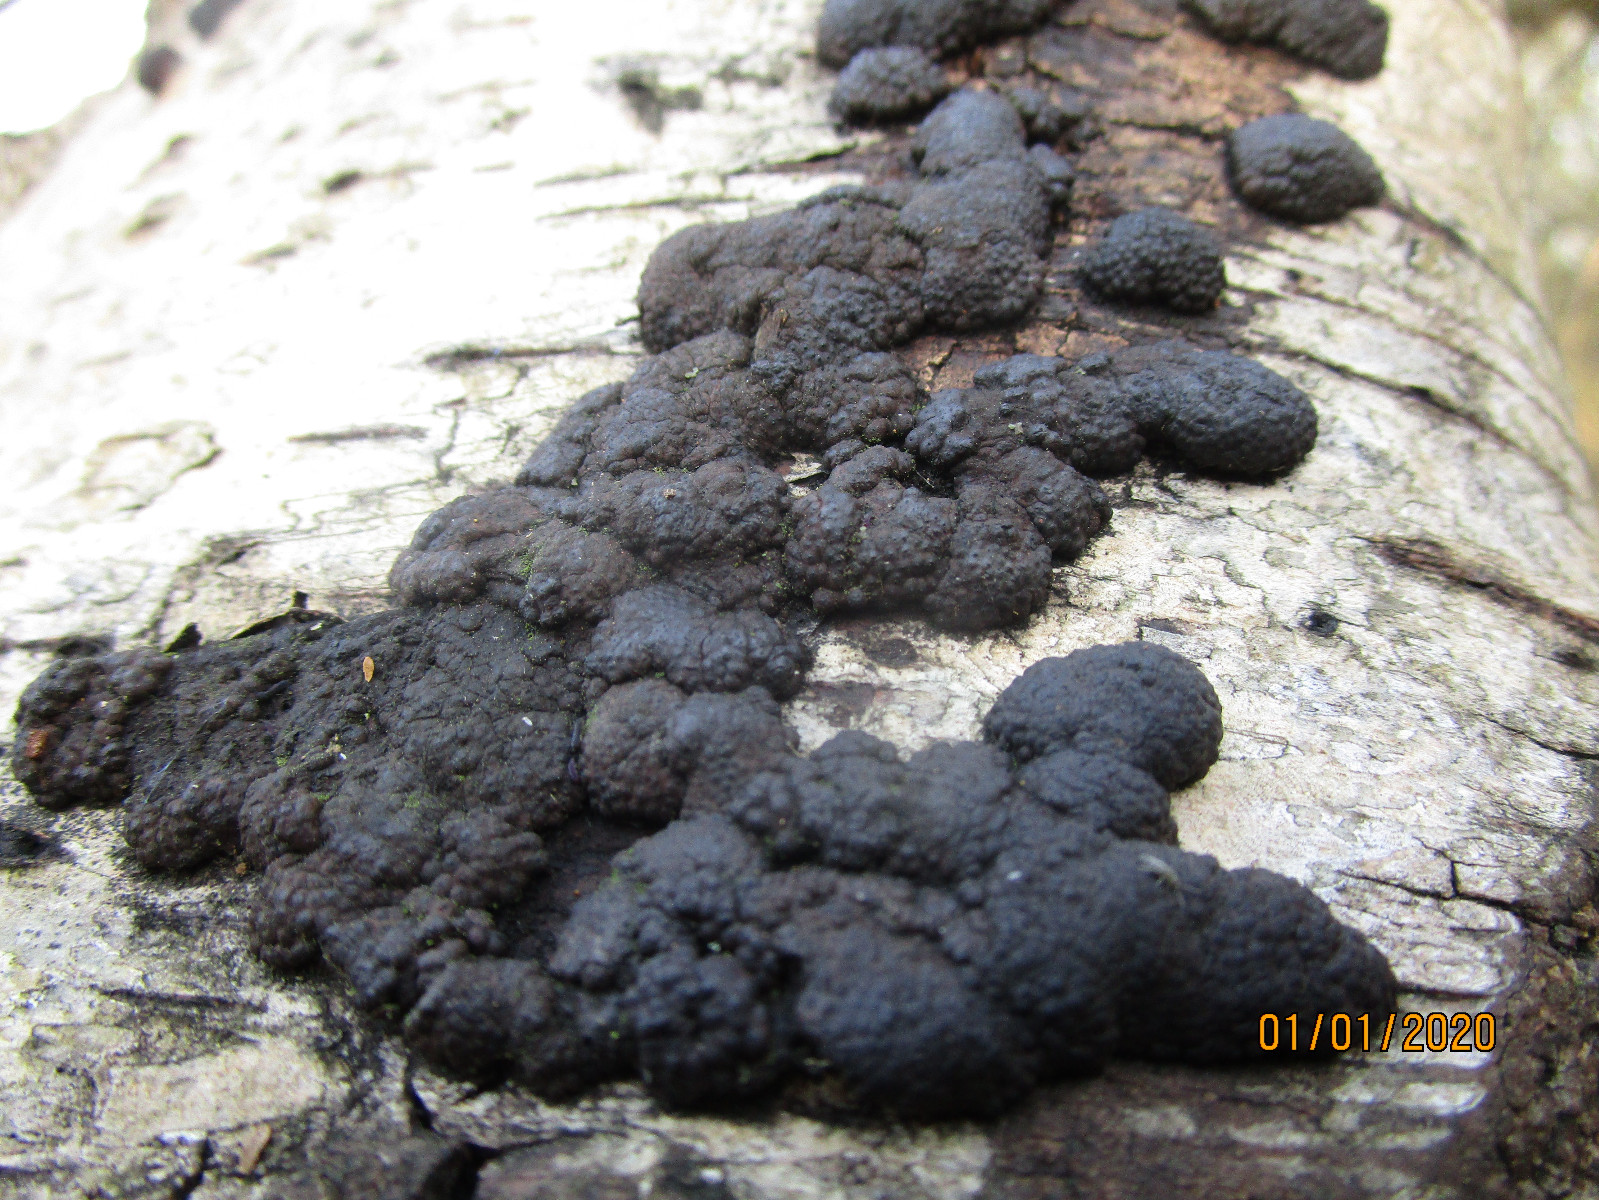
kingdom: Fungi
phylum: Ascomycota
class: Sordariomycetes
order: Xylariales
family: Hypoxylaceae
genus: Jackrogersella
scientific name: Jackrogersella multiformis
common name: foranderlig kulbær
